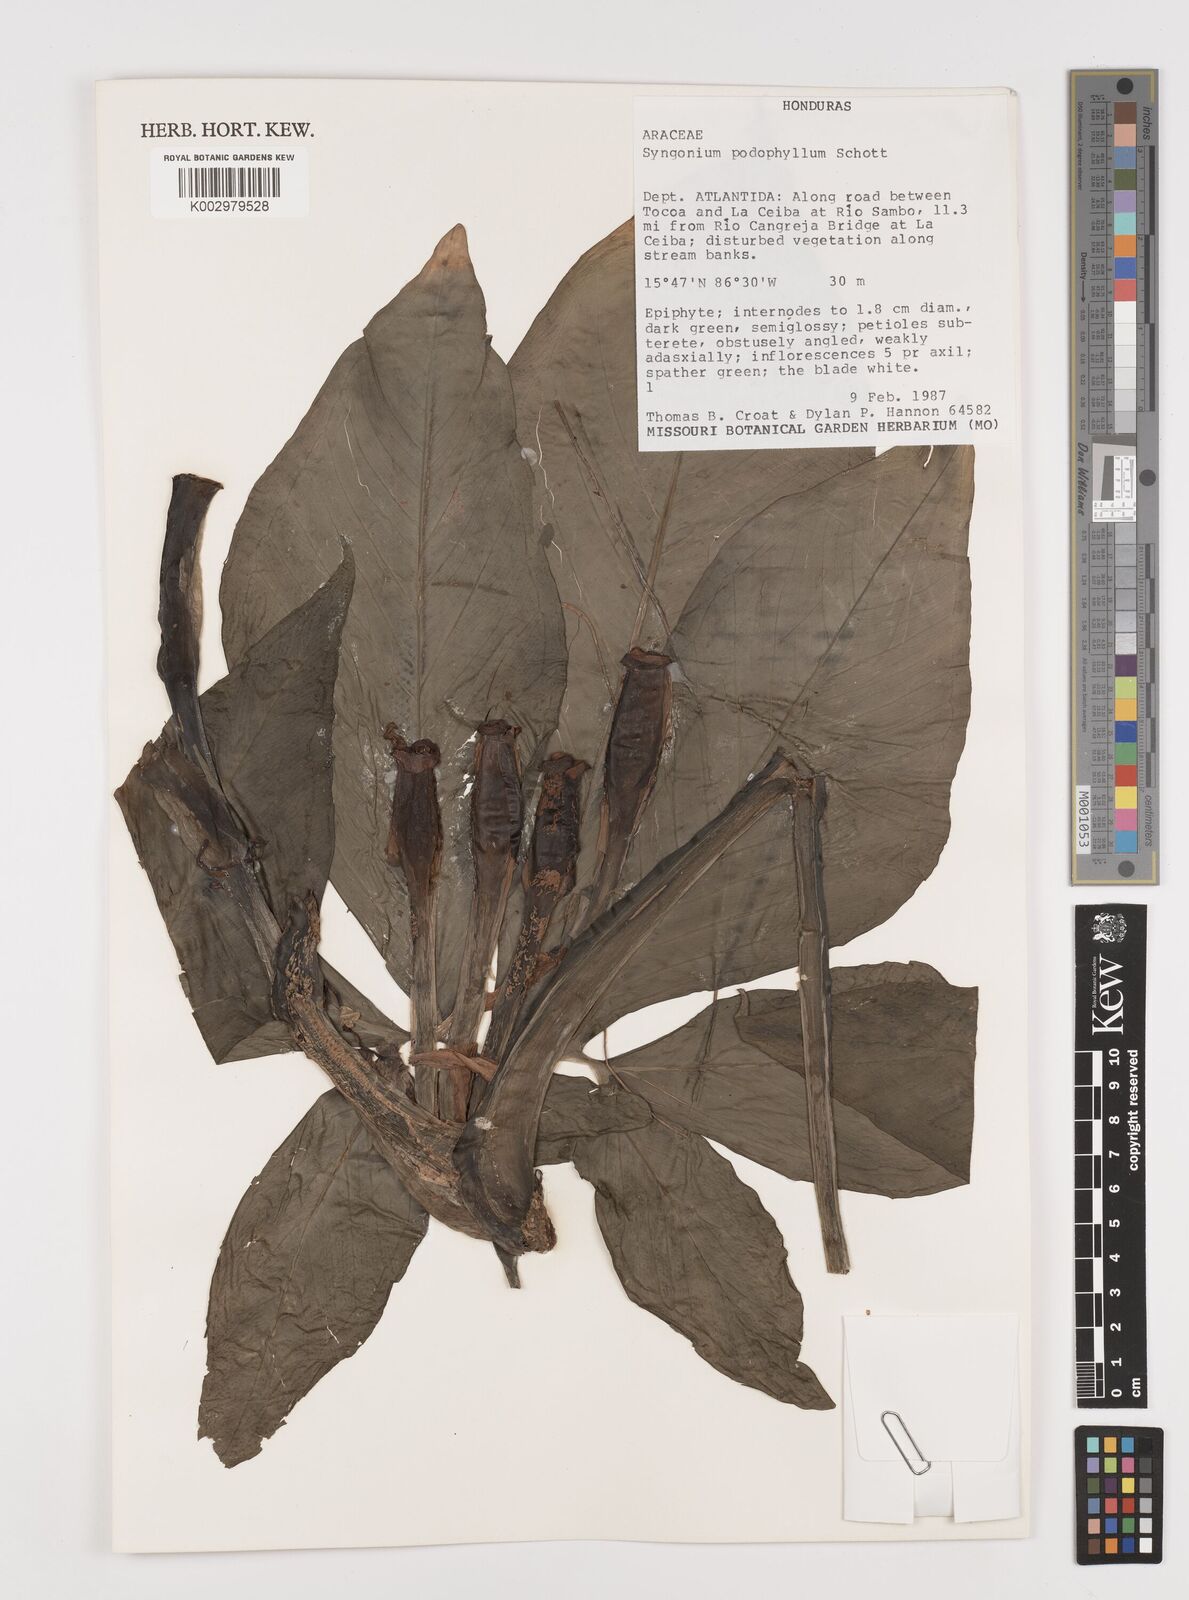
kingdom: Plantae
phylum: Tracheophyta
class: Liliopsida
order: Alismatales
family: Araceae
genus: Syngonium
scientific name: Syngonium podophyllum
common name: American evergreen
